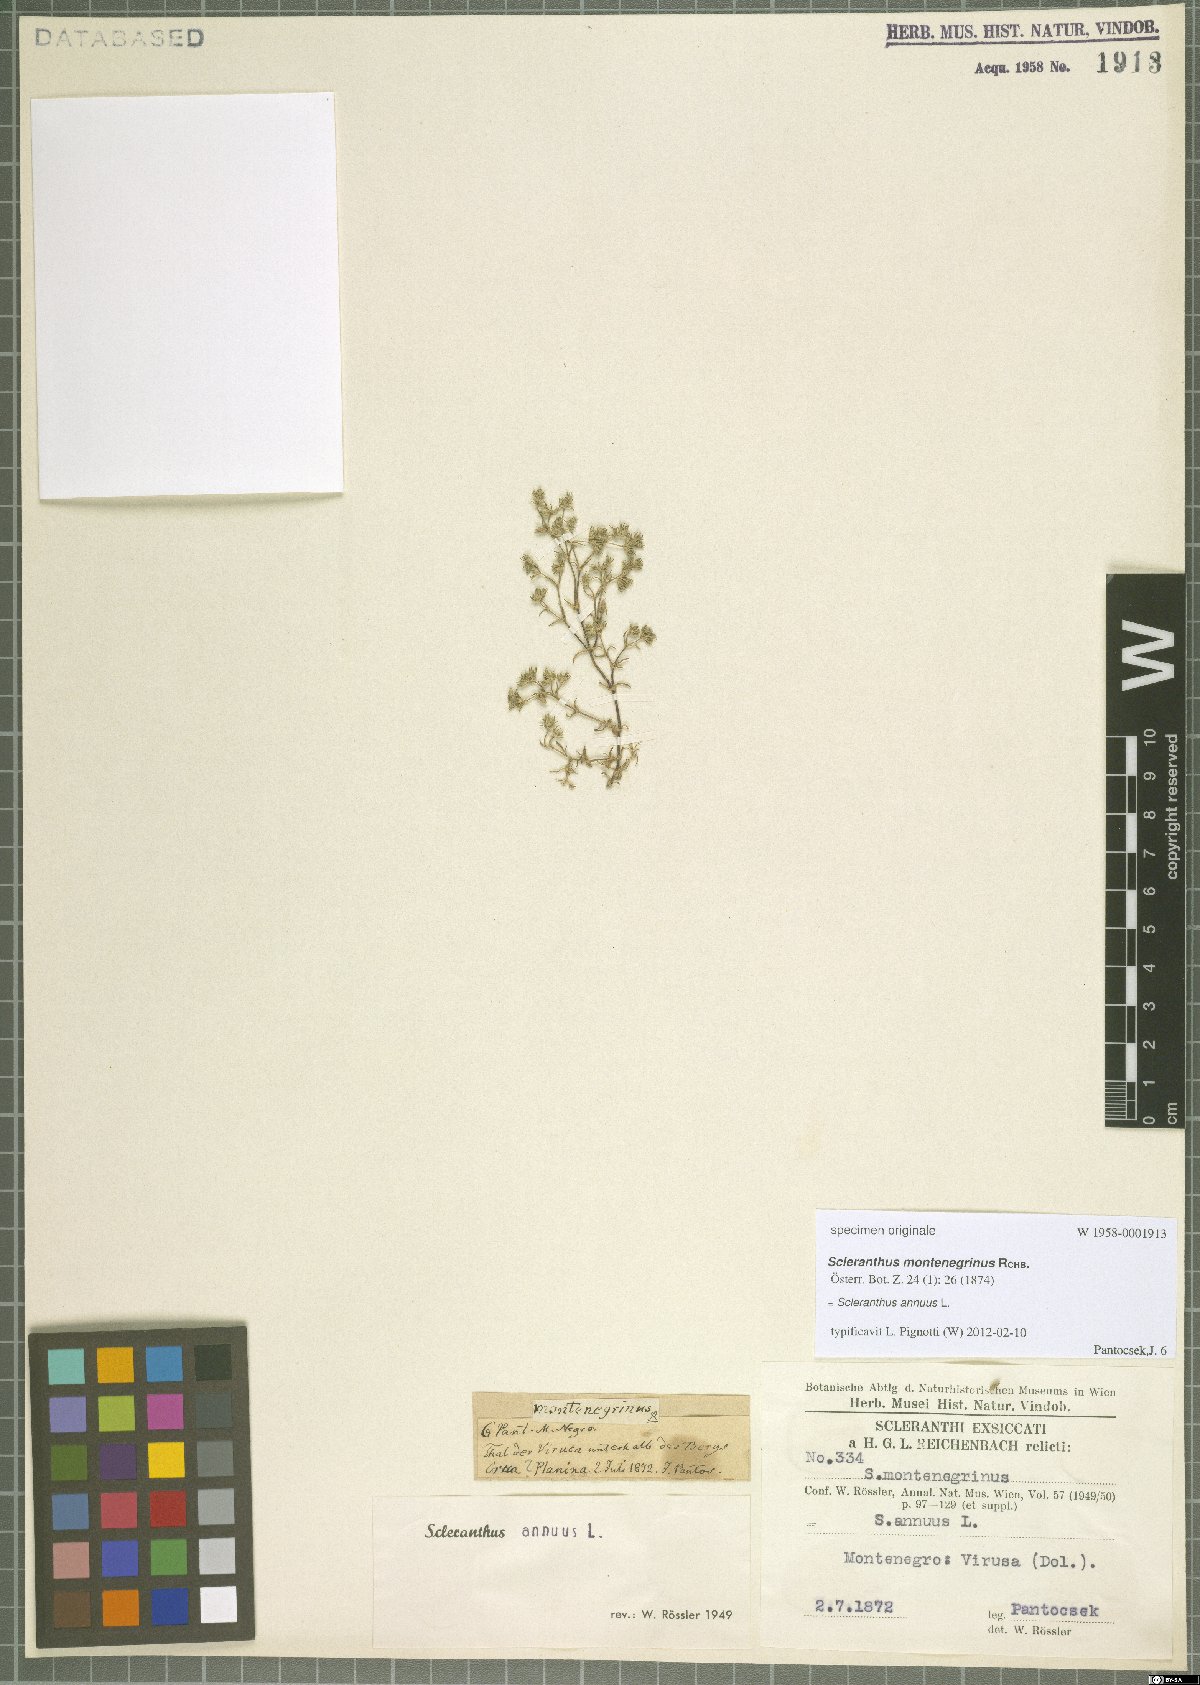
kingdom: Plantae
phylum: Tracheophyta
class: Magnoliopsida
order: Caryophyllales
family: Caryophyllaceae
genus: Scleranthus
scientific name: Scleranthus annuus
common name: Annual knawel
